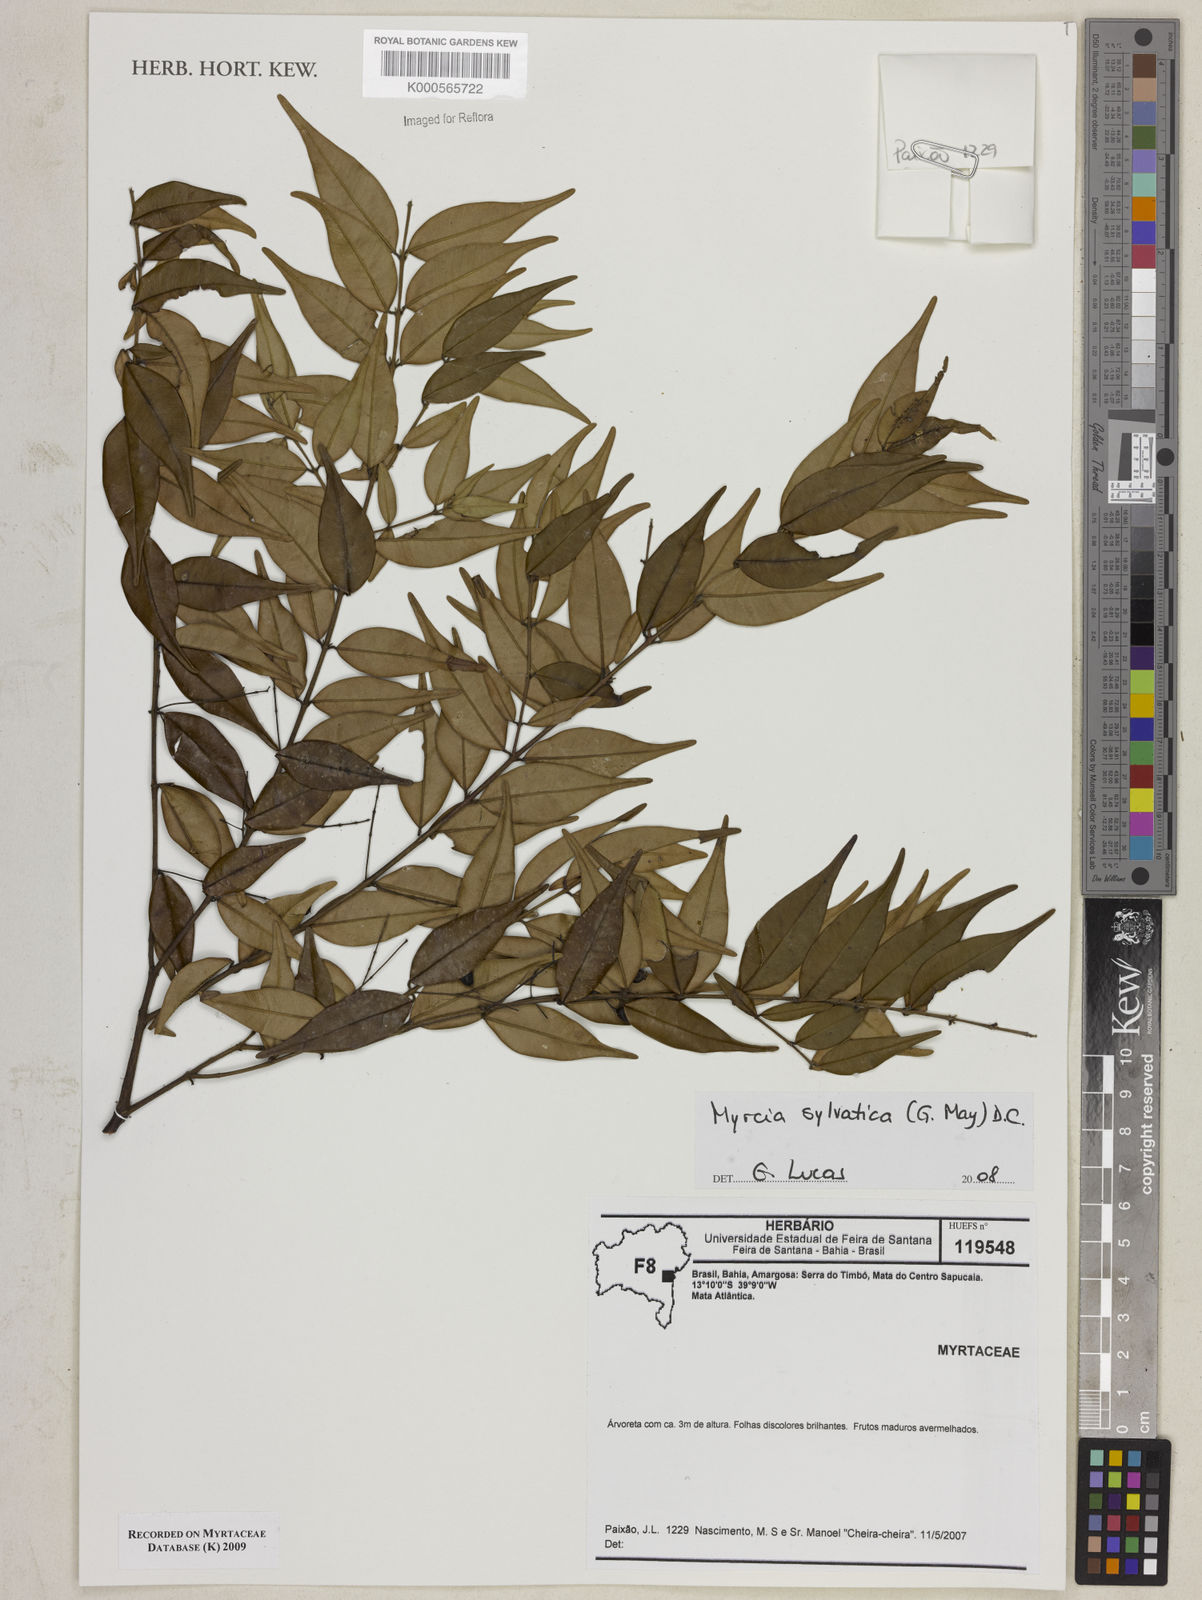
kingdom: Plantae
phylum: Tracheophyta
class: Magnoliopsida
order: Myrtales
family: Myrtaceae
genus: Myrcia
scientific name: Myrcia sylvatica
